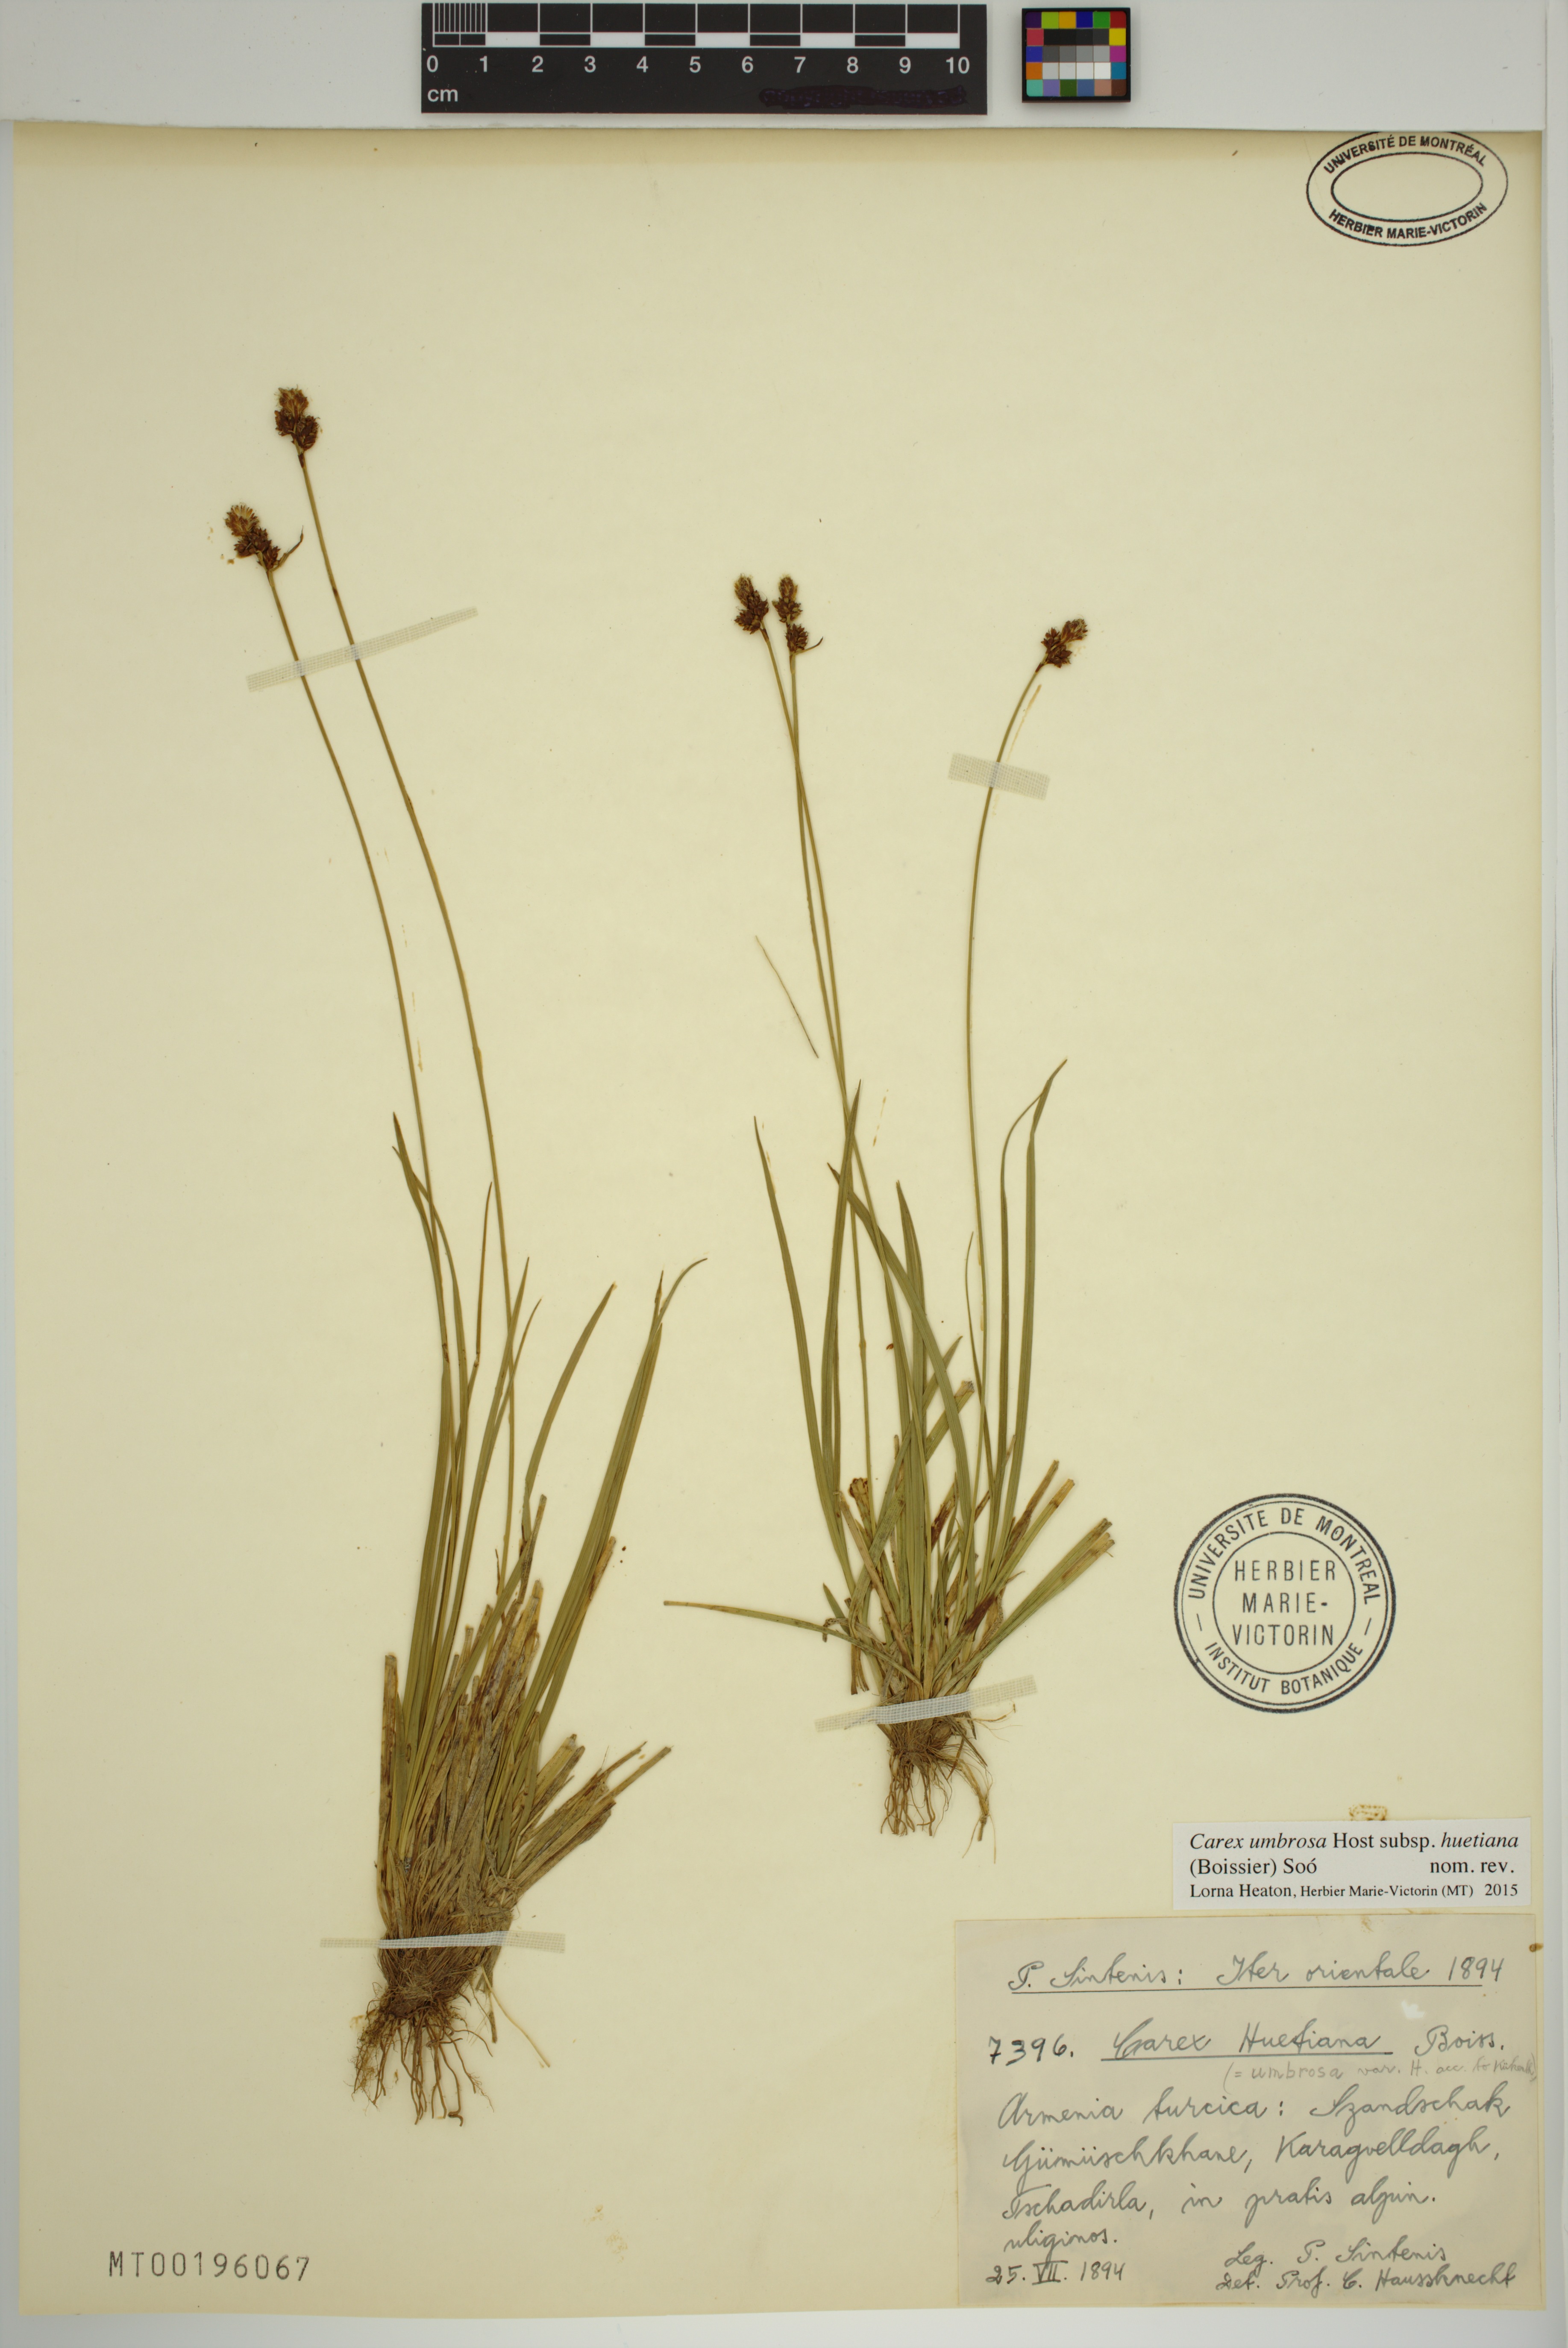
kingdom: Plantae
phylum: Tracheophyta
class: Liliopsida
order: Poales
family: Cyperaceae
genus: Carex
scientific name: Carex umbrosa
